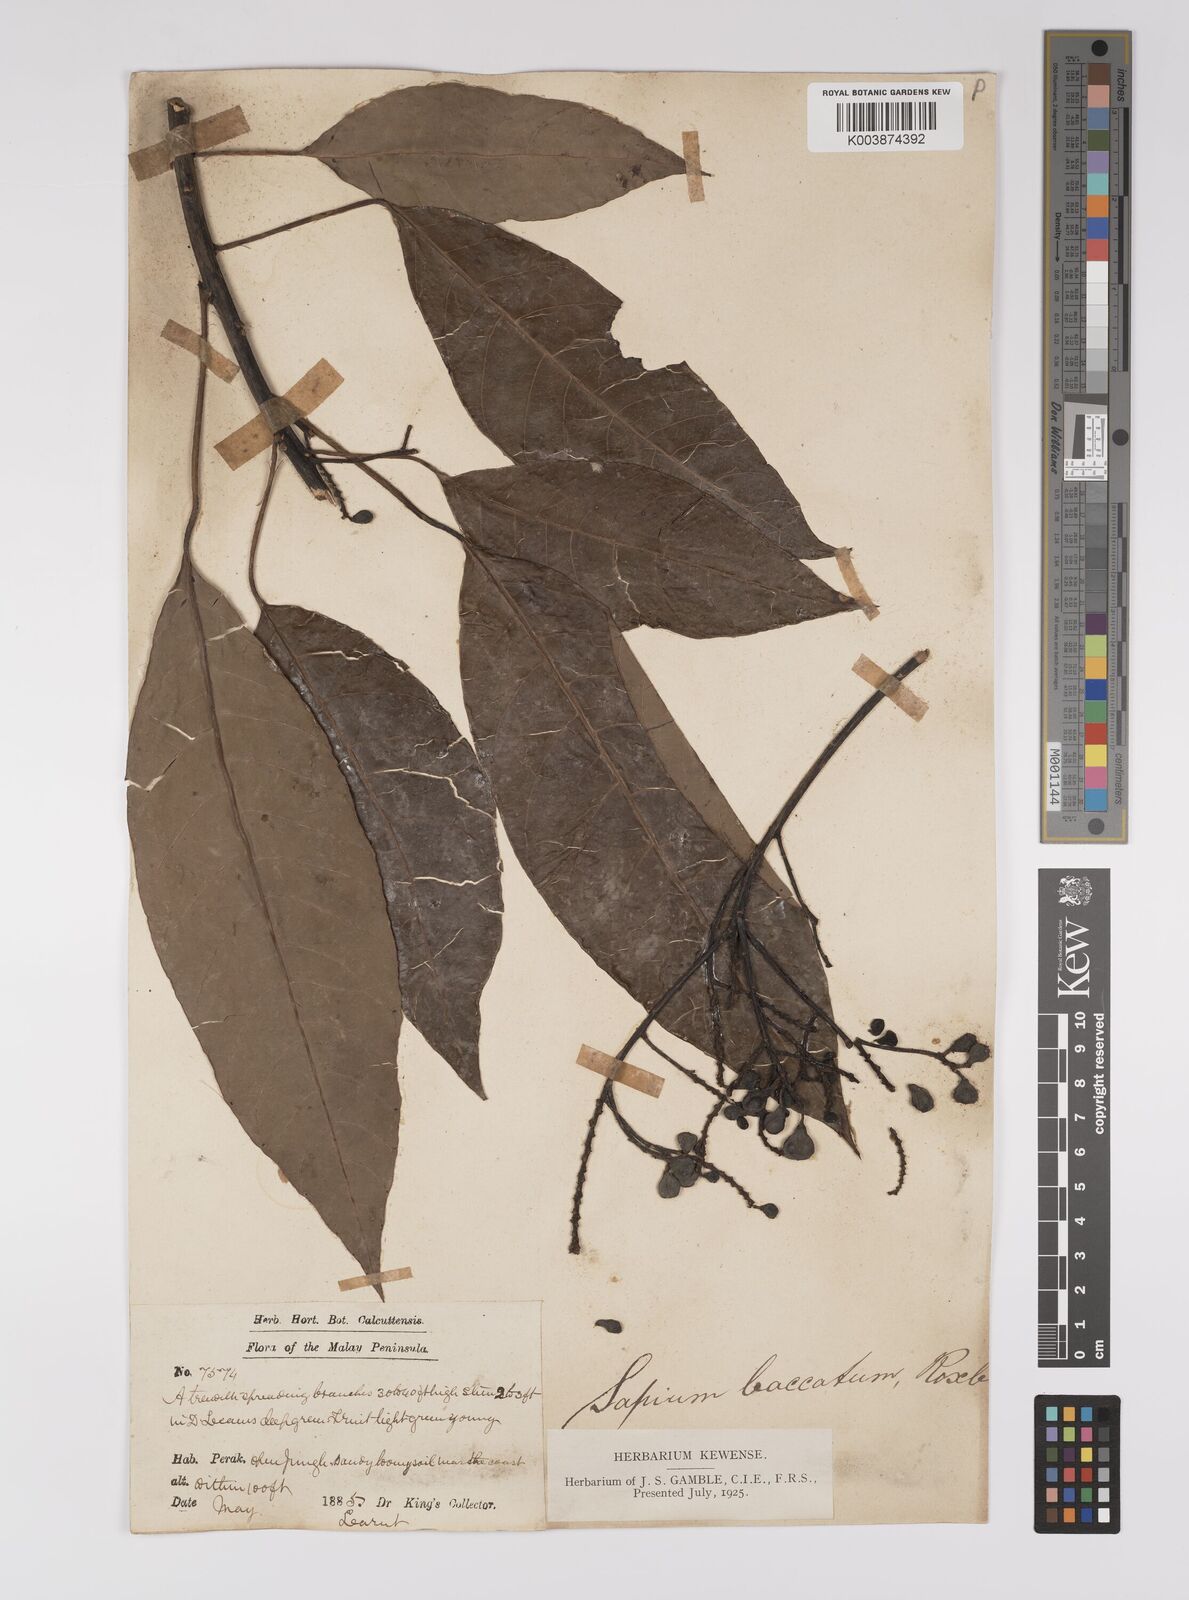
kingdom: Plantae
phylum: Tracheophyta
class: Magnoliopsida
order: Malpighiales
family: Euphorbiaceae
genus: Balakata
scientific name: Balakata baccata
